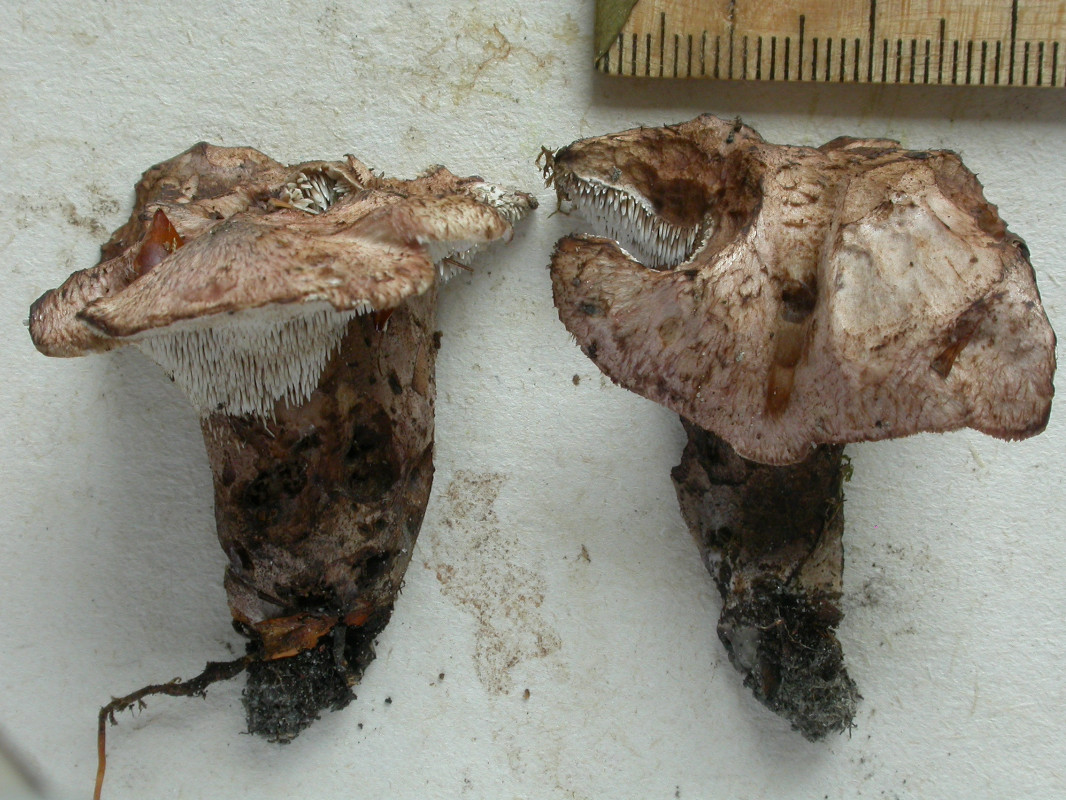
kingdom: Fungi
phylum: Basidiomycota
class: Agaricomycetes
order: Thelephorales
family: Bankeraceae
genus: Hydnellum
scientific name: Hydnellum lepidum
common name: skrænt-korkpigsvamp
